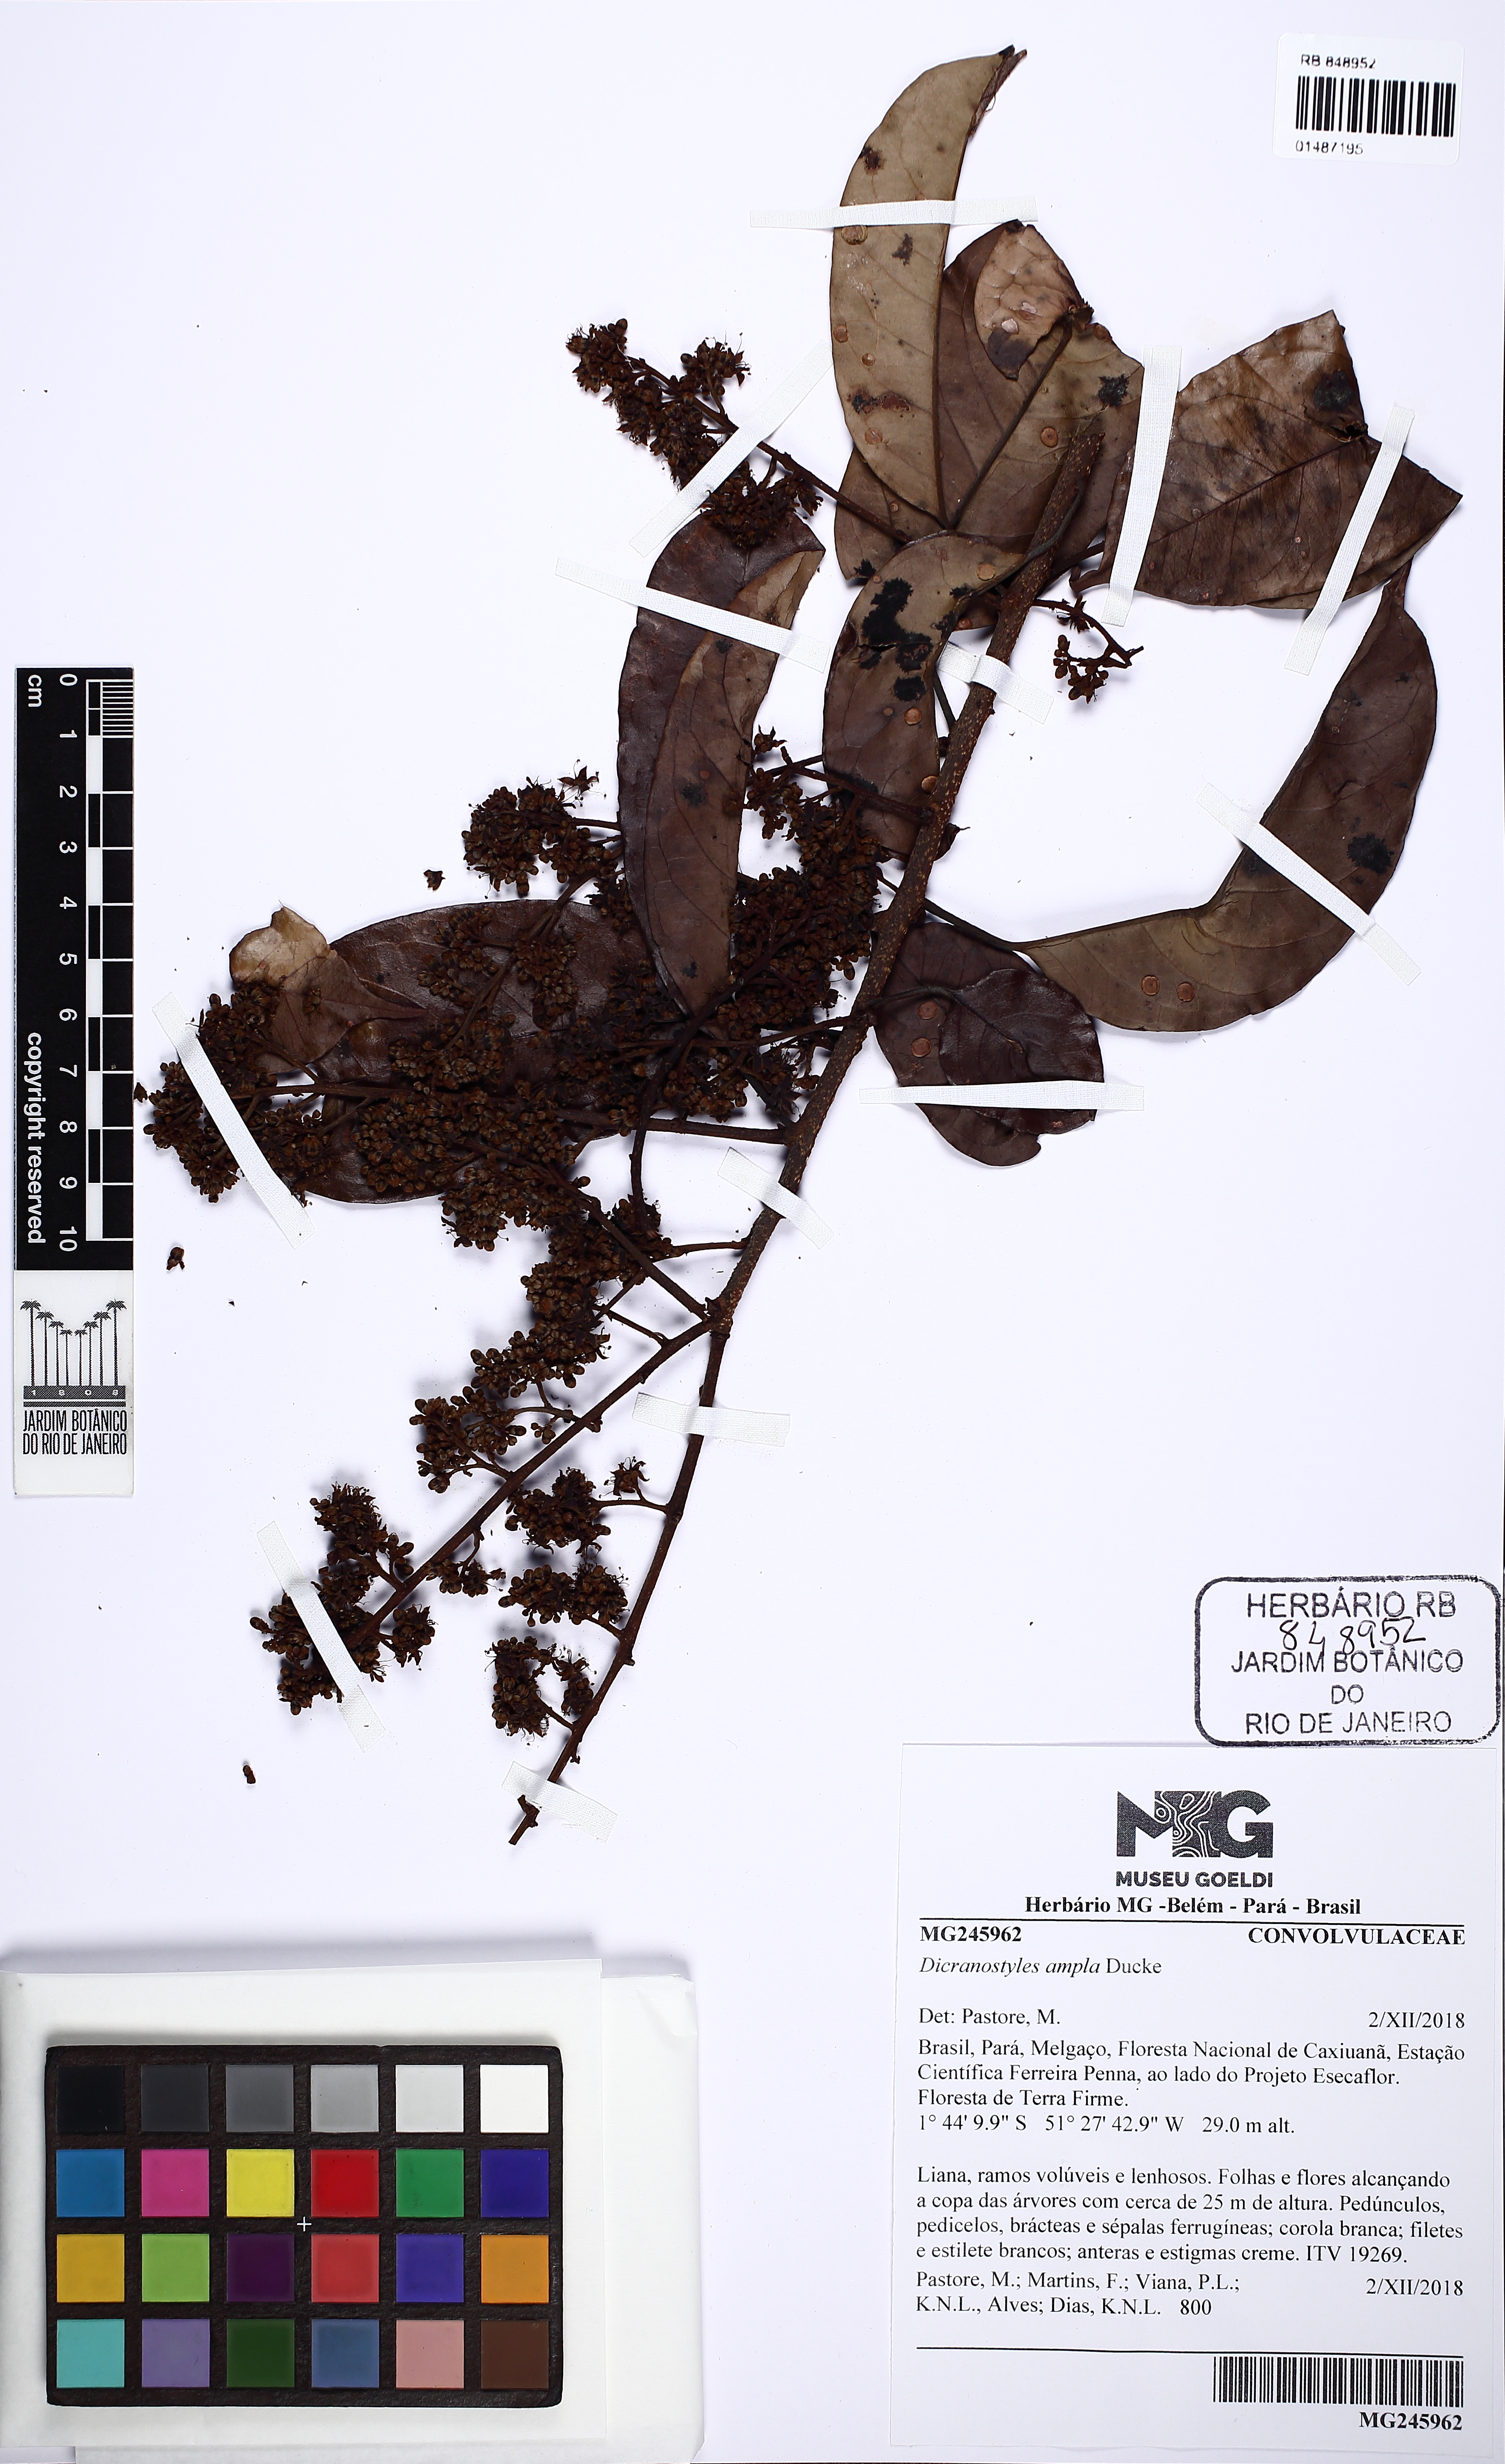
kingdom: Plantae
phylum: Tracheophyta
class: Magnoliopsida
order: Solanales
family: Convolvulaceae
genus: Dicranostyles
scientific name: Dicranostyles ampla
